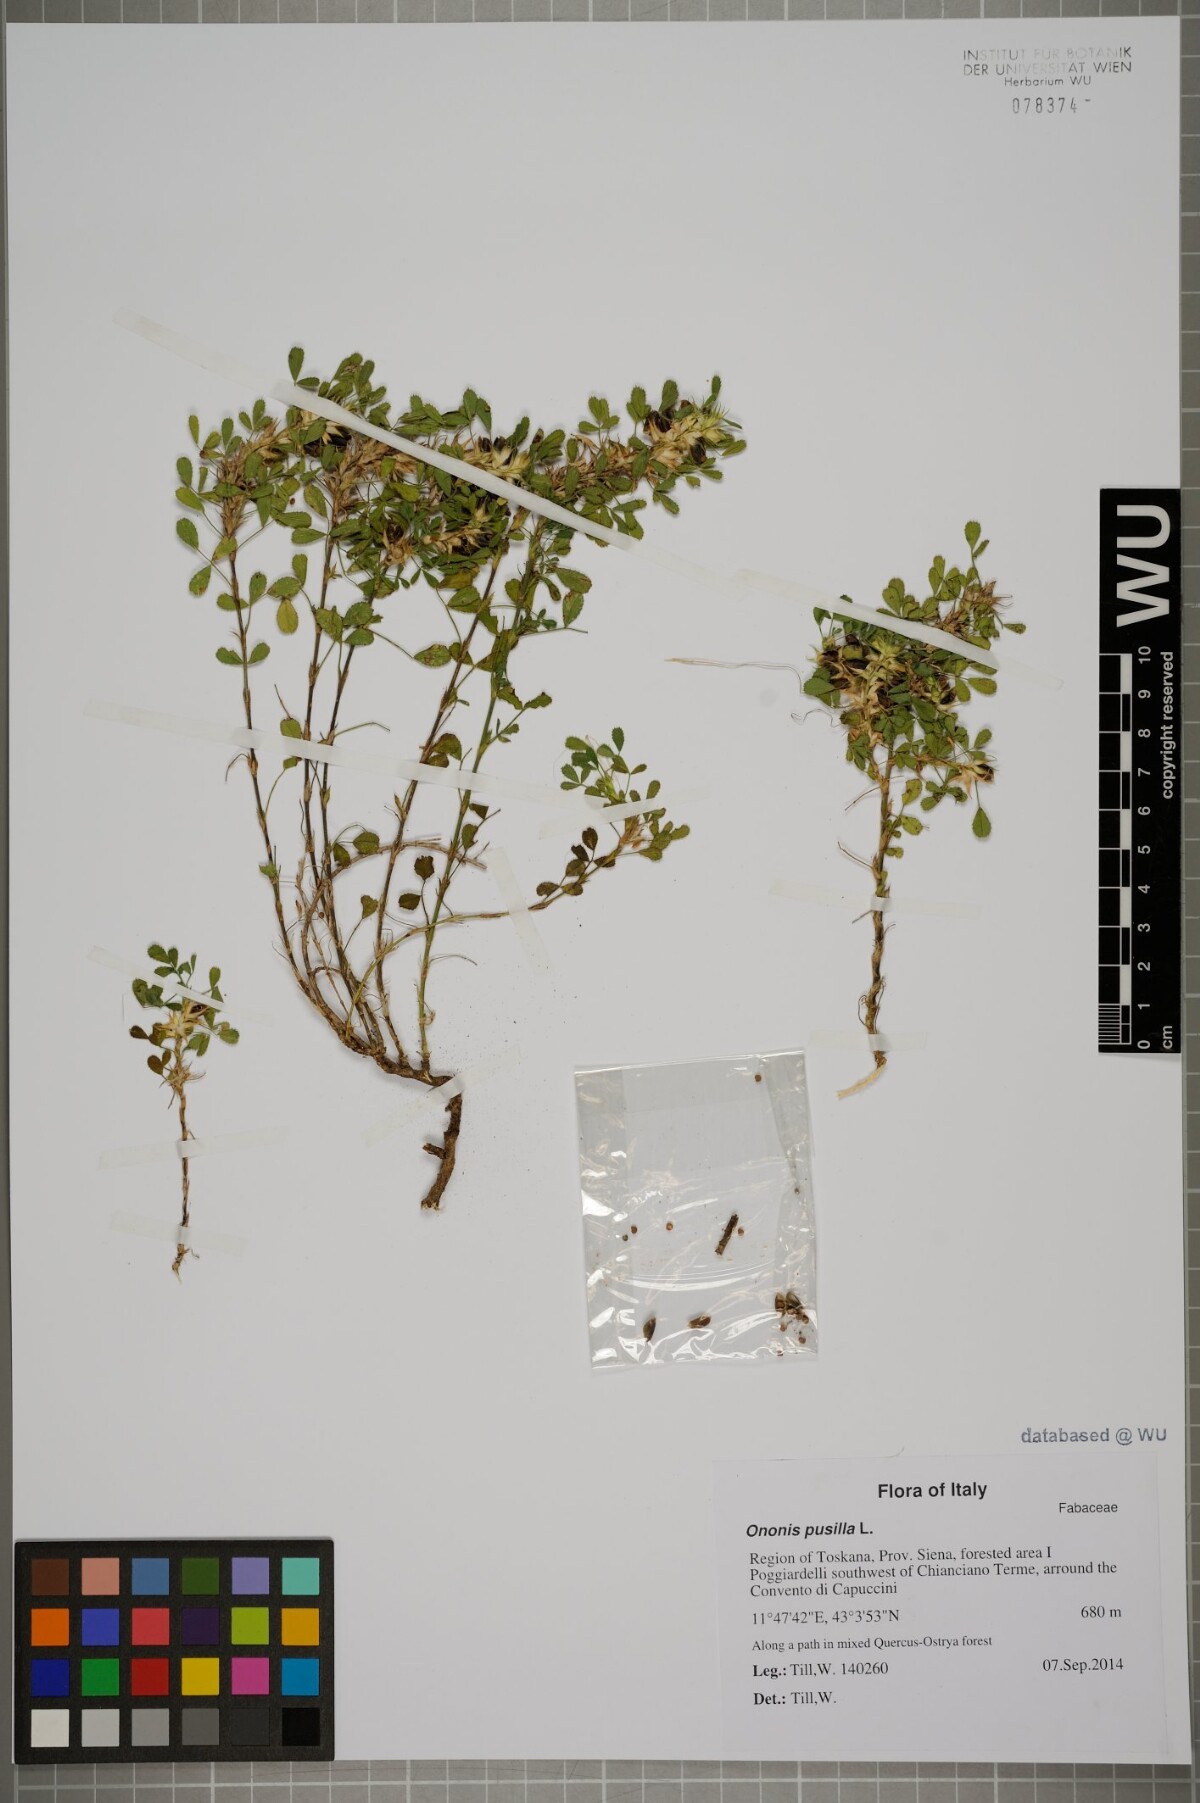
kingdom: Plantae
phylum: Tracheophyta
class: Magnoliopsida
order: Fabales
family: Fabaceae
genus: Ononis
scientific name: Ononis pusilla
